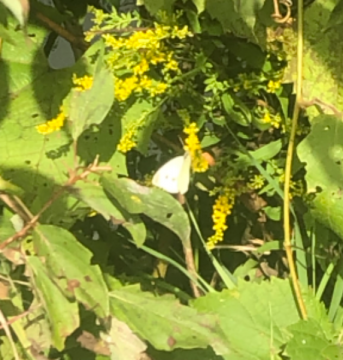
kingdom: Animalia
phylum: Arthropoda
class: Insecta
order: Lepidoptera
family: Pieridae
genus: Pieris
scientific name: Pieris rapae
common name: Cabbage White
